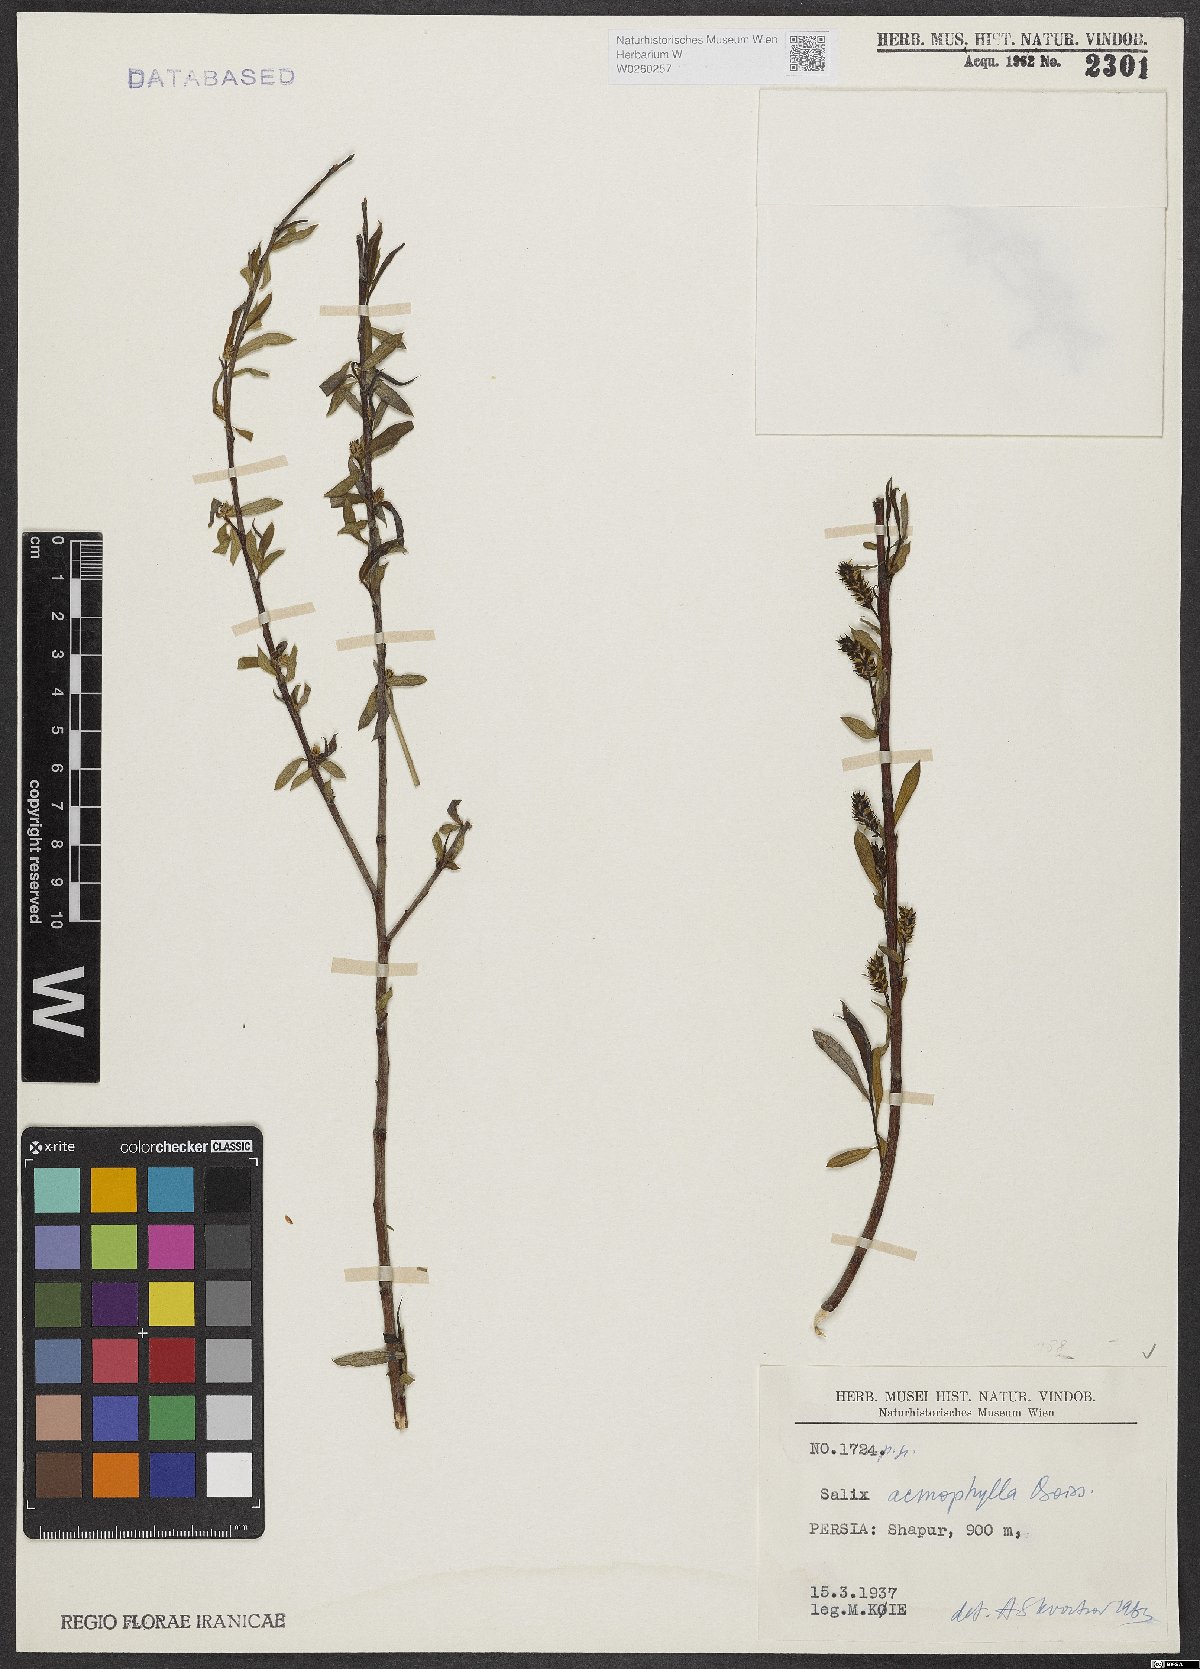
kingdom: Plantae
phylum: Tracheophyta
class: Magnoliopsida
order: Malpighiales
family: Salicaceae
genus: Salix
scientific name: Salix acmophylla
